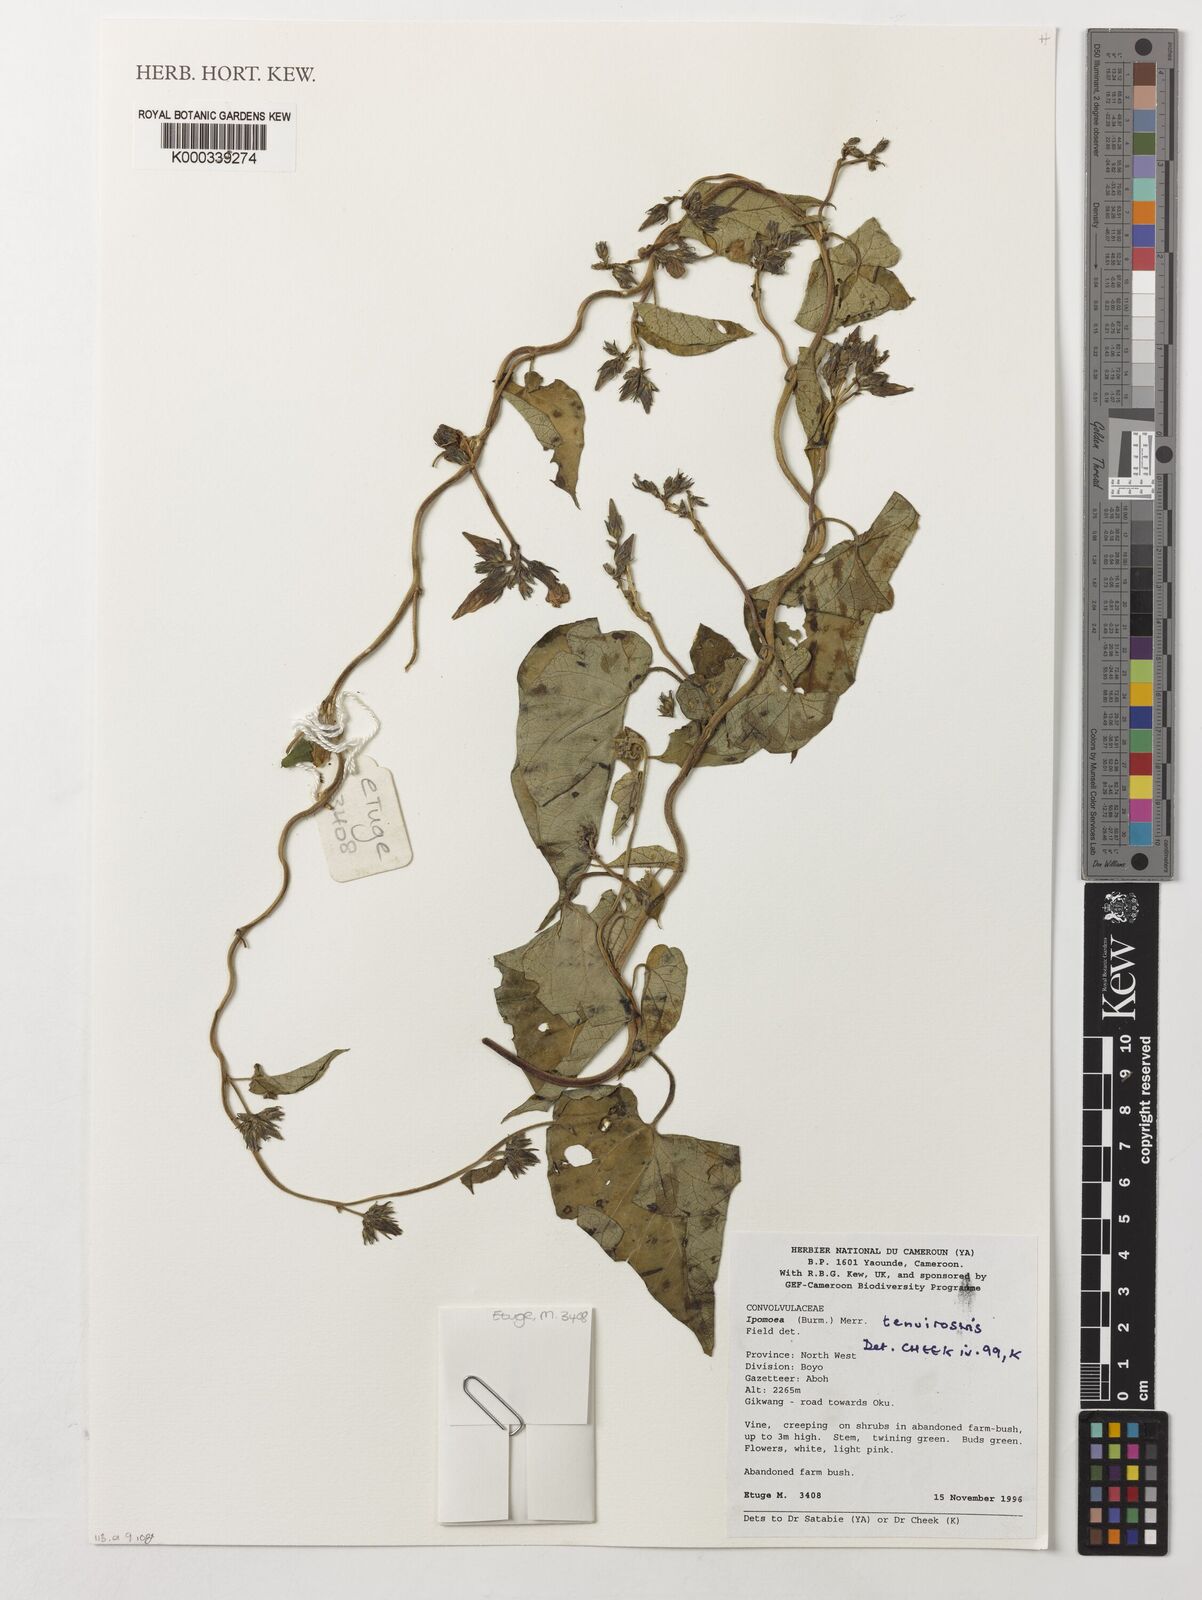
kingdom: Plantae
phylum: Tracheophyta
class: Magnoliopsida
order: Solanales
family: Convolvulaceae
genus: Ipomoea
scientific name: Ipomoea tenuirostris
